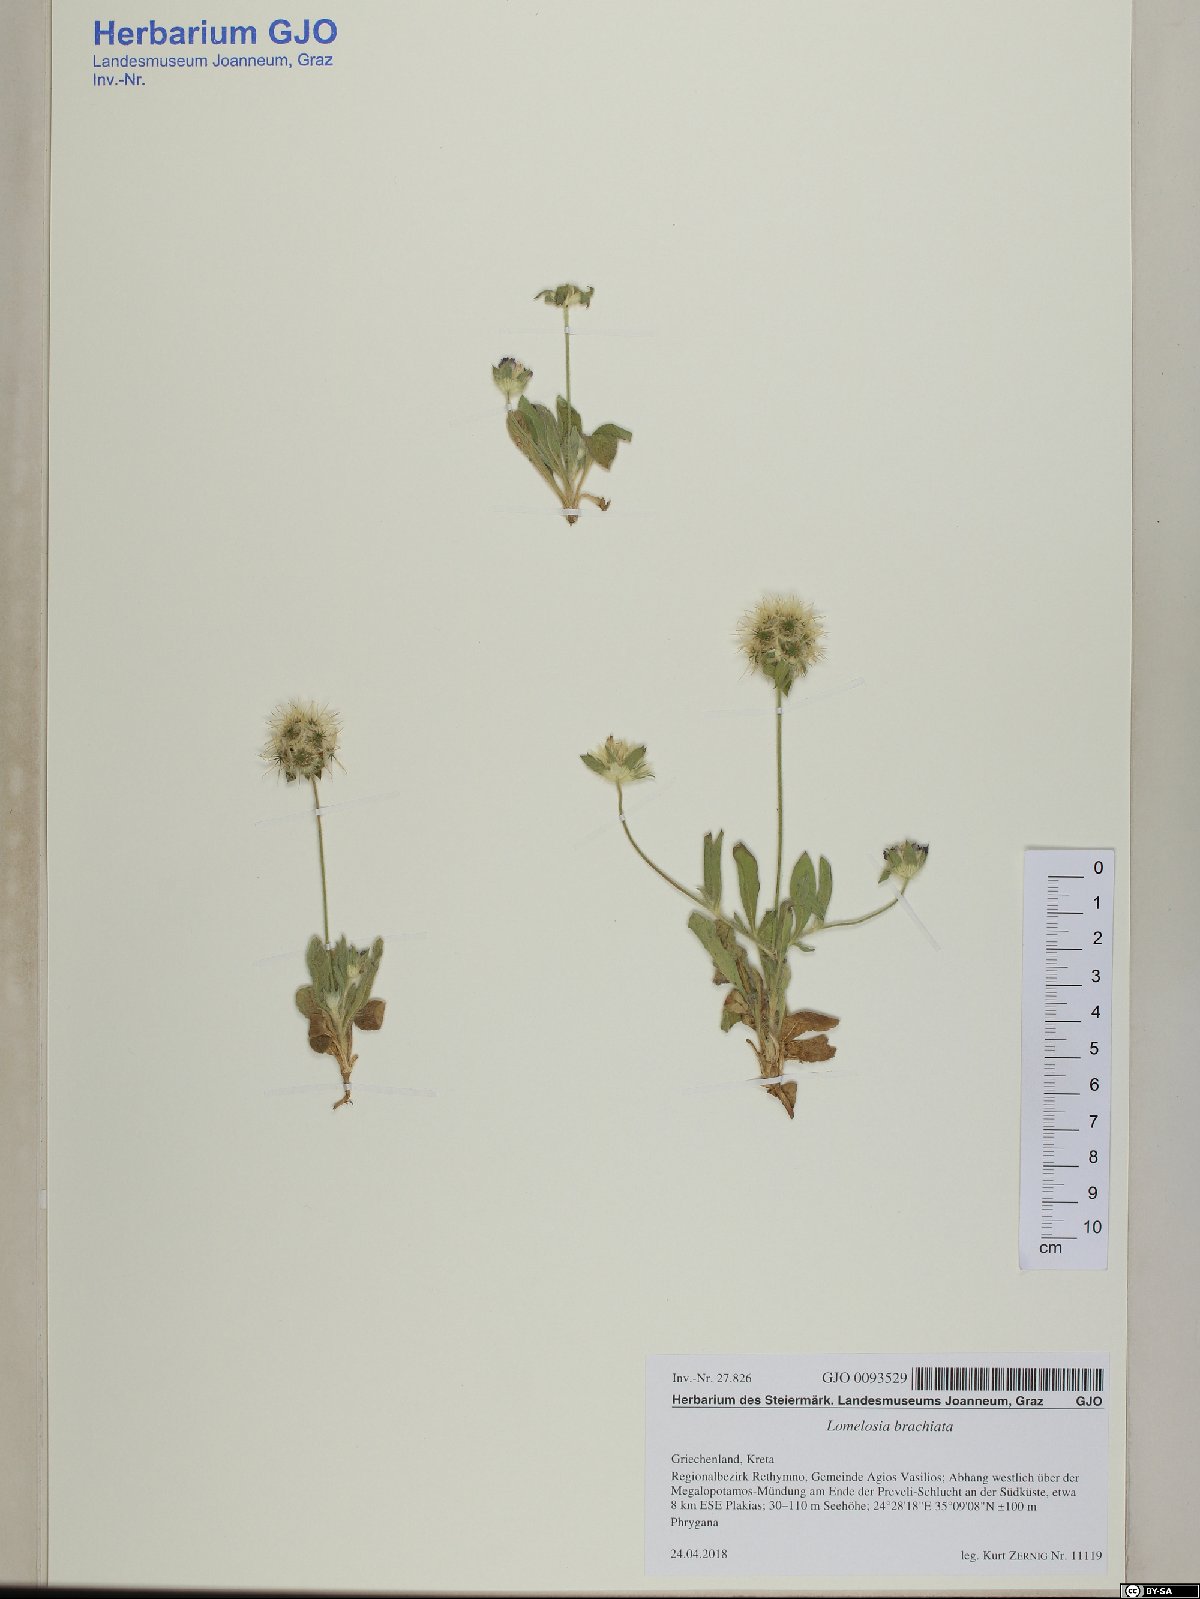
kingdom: Plantae
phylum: Tracheophyta
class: Magnoliopsida
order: Dipsacales
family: Caprifoliaceae
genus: Lomelosia
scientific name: Lomelosia brachiata
